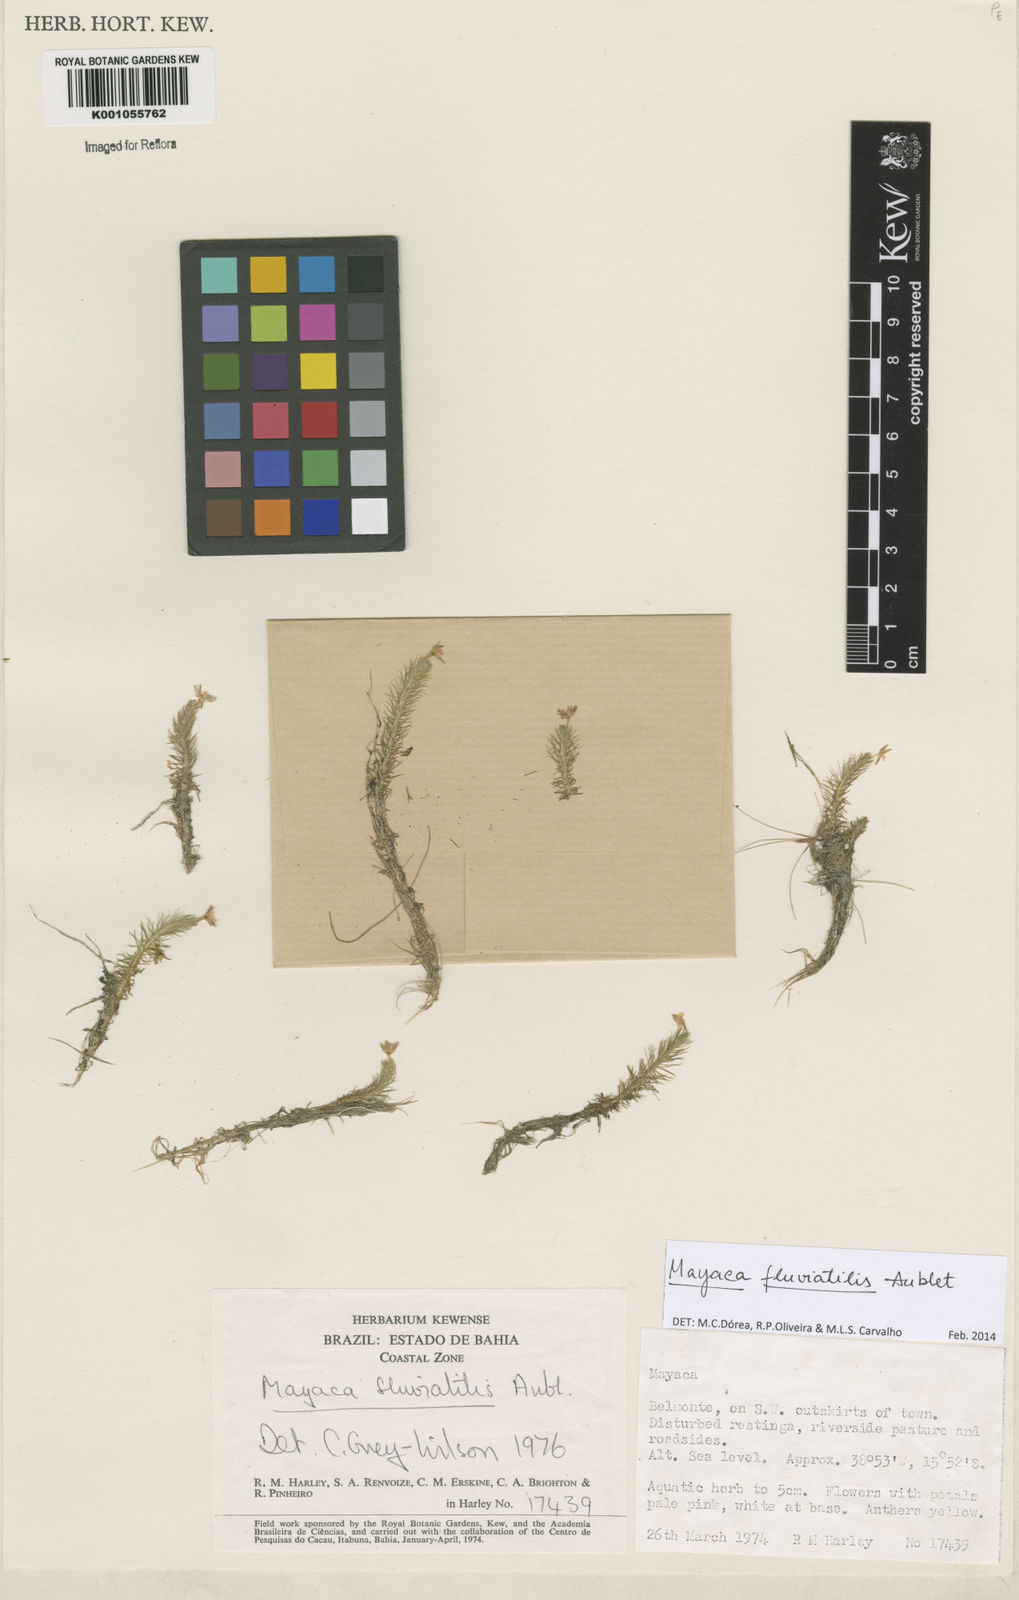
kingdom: Plantae
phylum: Tracheophyta
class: Liliopsida
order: Poales
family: Mayacaceae
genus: Mayaca
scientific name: Mayaca
